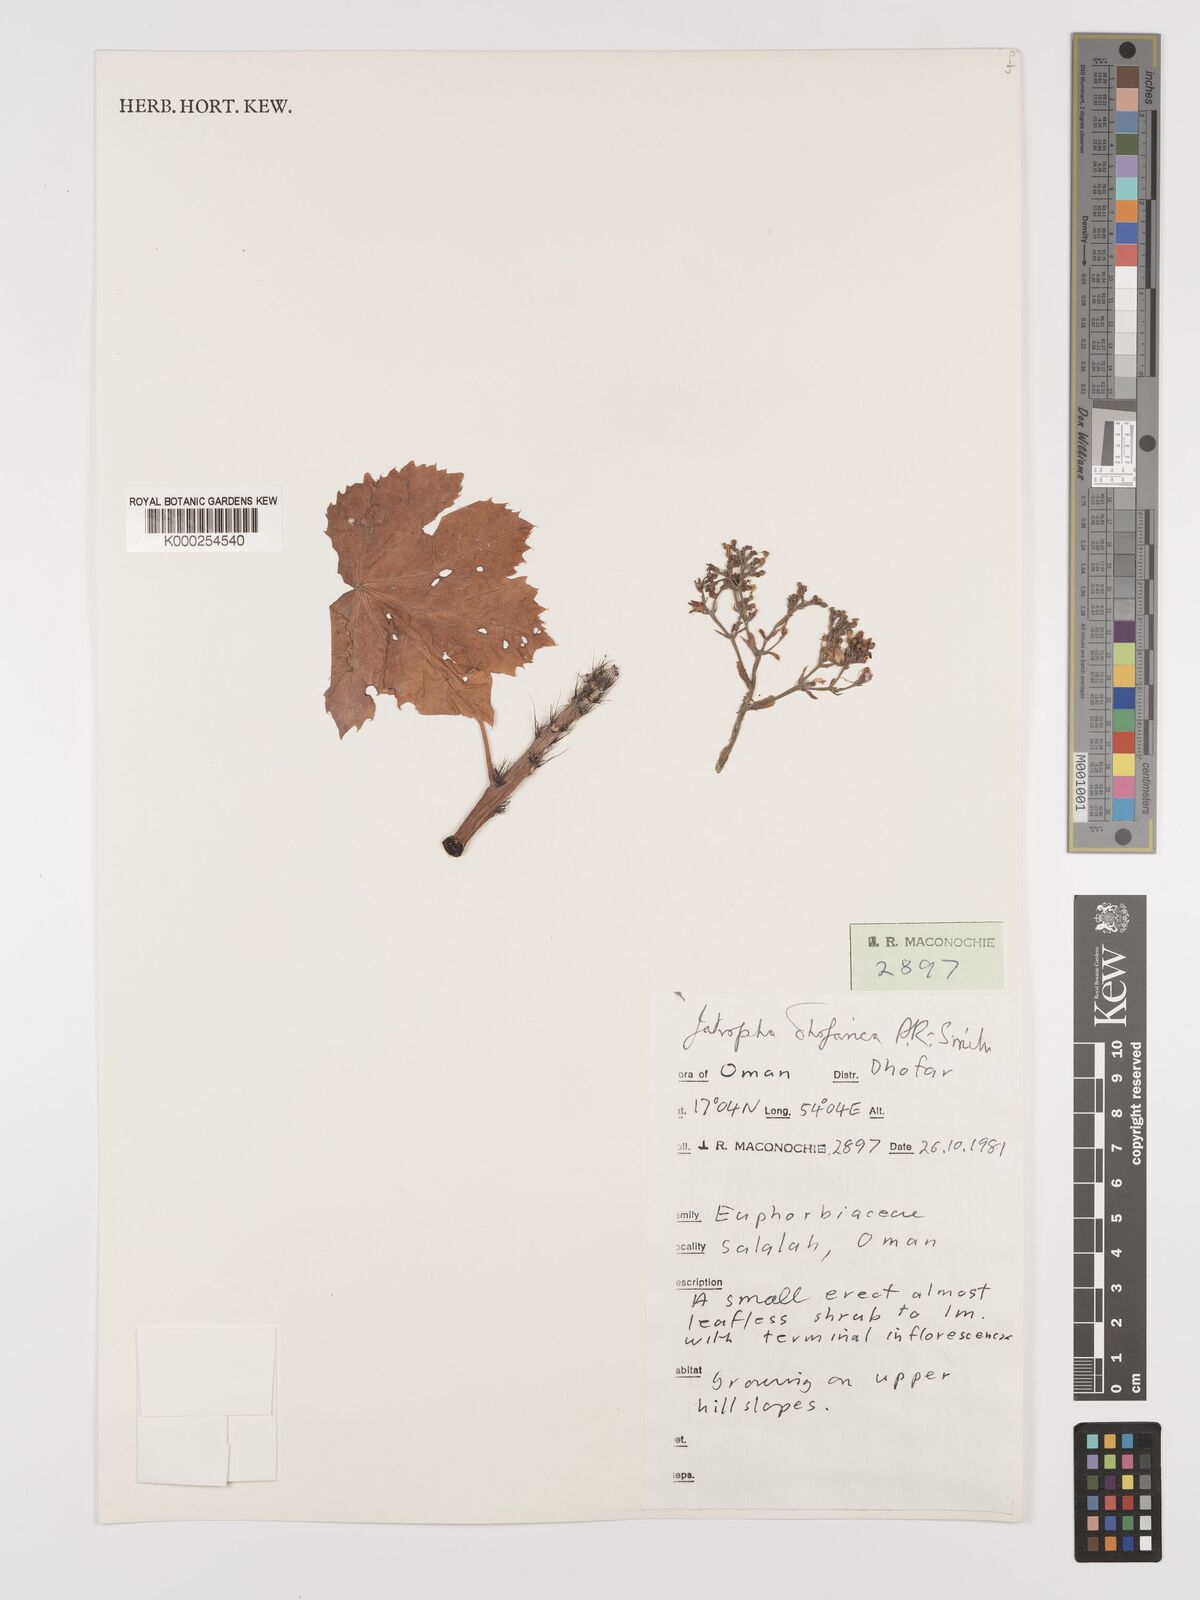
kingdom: Plantae
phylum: Tracheophyta
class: Magnoliopsida
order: Malpighiales
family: Euphorbiaceae
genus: Jatropha
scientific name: Jatropha dhofarica
